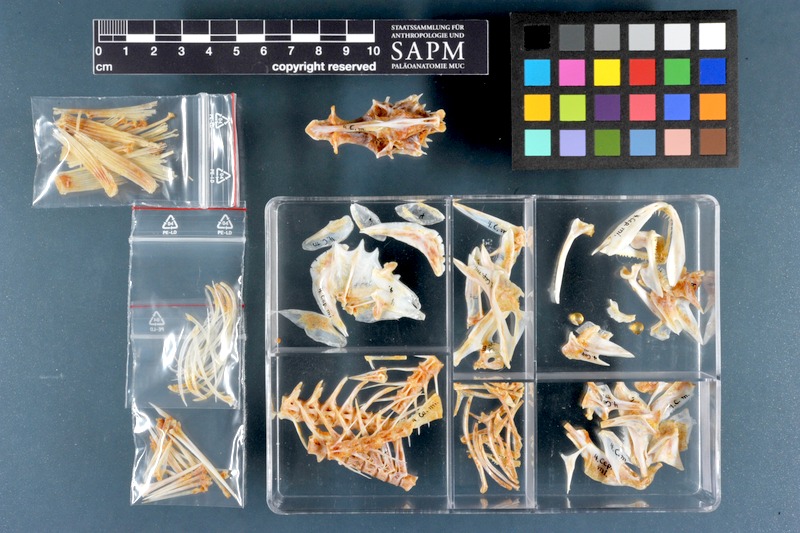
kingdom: Animalia
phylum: Chordata
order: Perciformes
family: Serranidae
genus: Cephalopholis
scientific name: Cephalopholis miniata
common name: Coral hind
